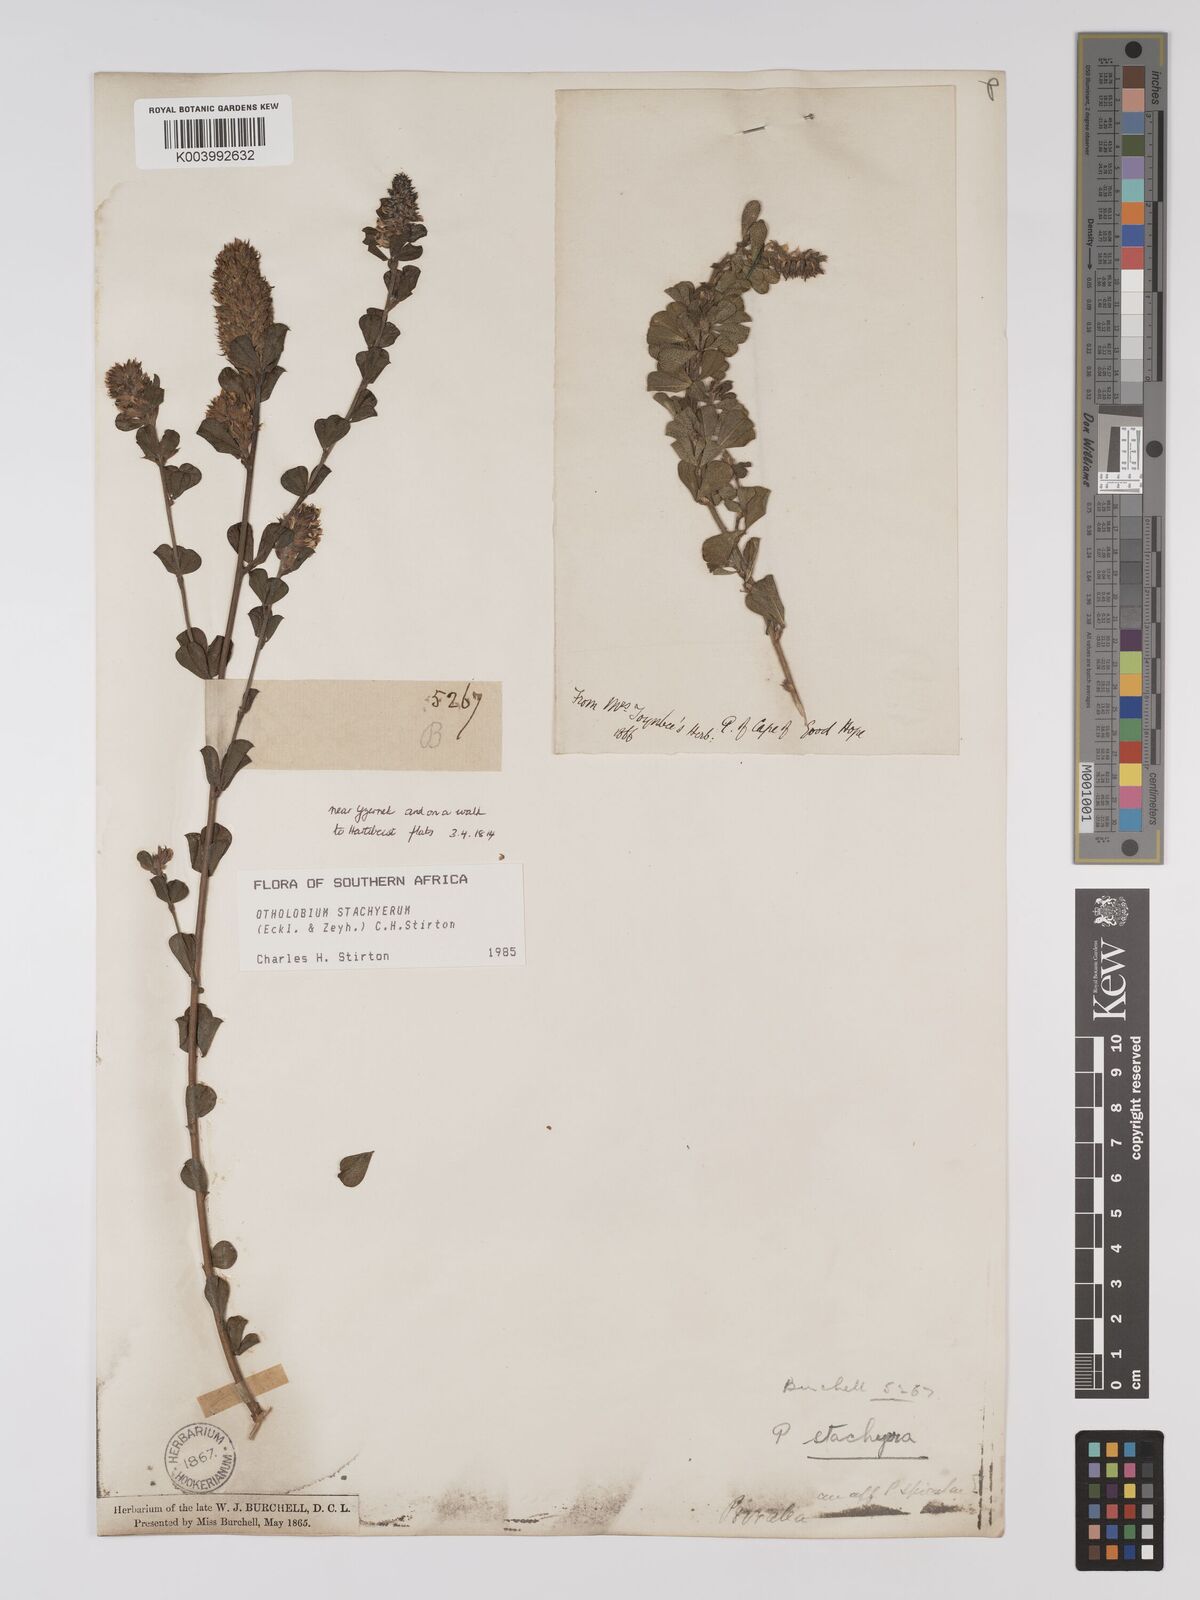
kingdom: Plantae
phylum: Tracheophyta
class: Magnoliopsida
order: Fabales
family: Fabaceae
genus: Psoralea
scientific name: Psoralea stachyera
